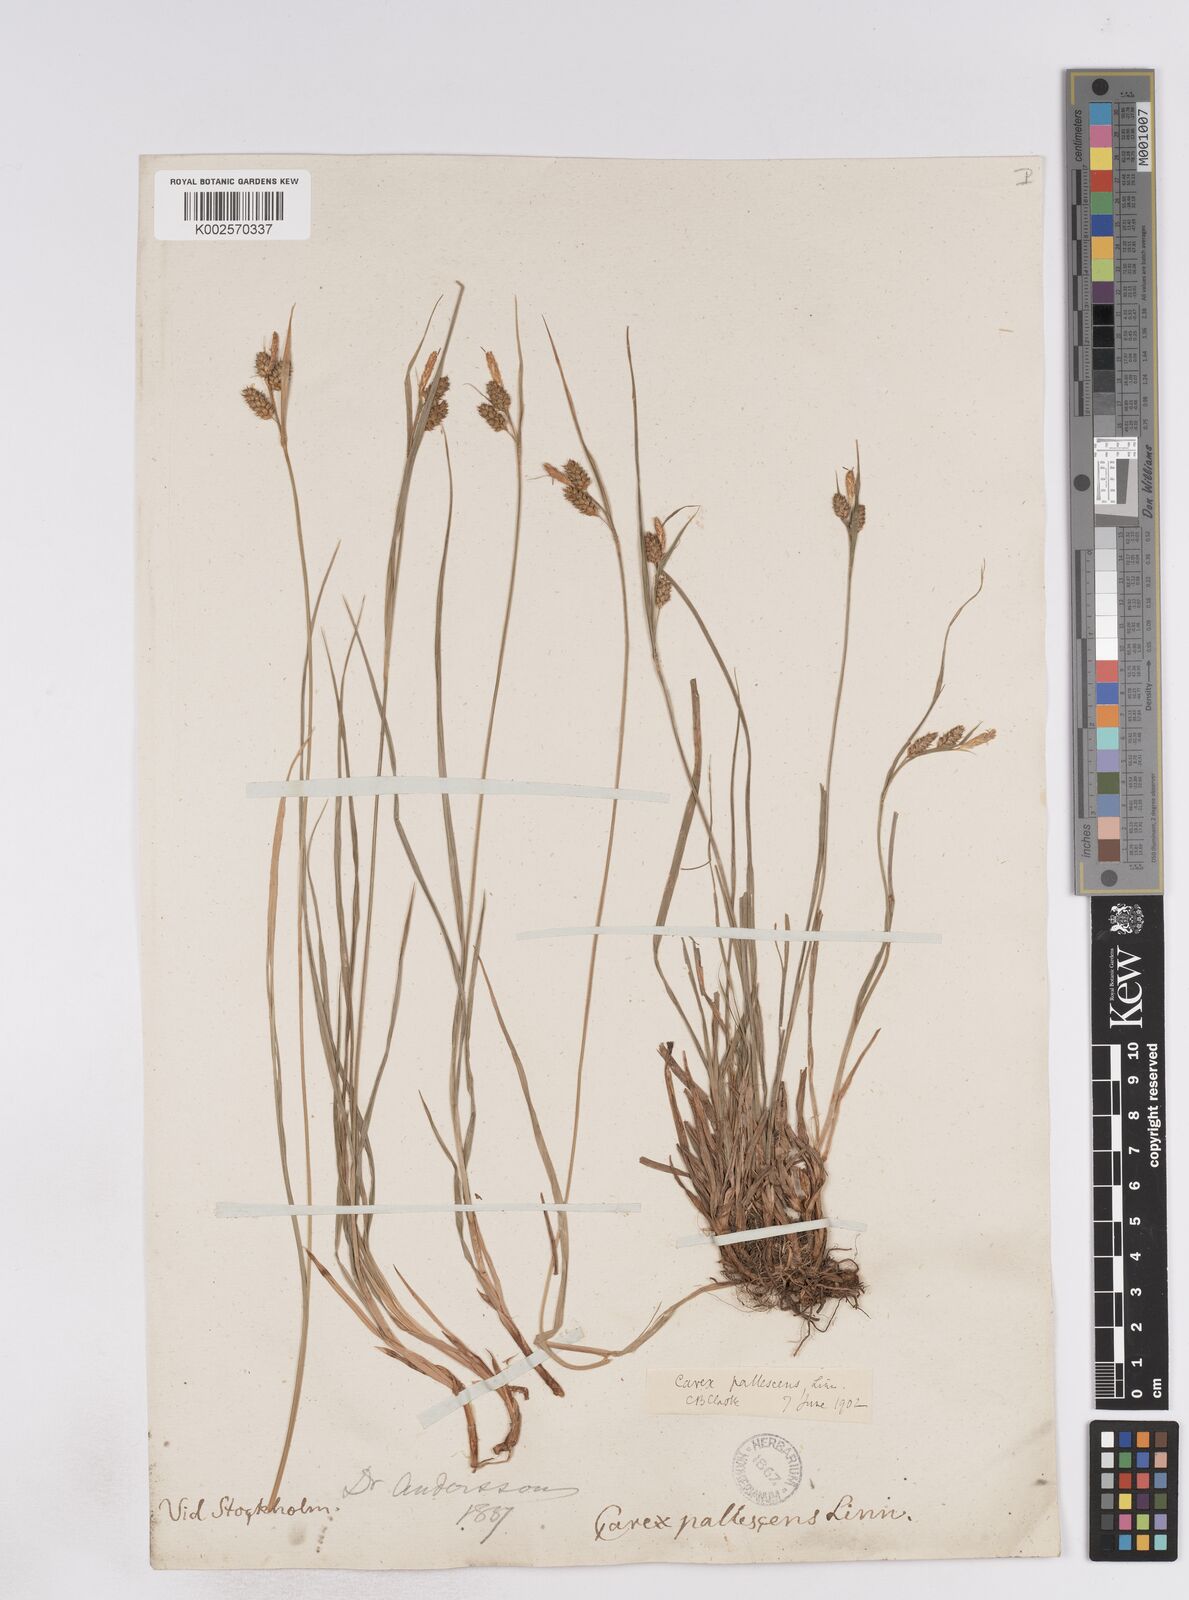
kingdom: Plantae
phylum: Tracheophyta
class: Liliopsida
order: Poales
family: Cyperaceae
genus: Carex
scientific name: Carex pallescens
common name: Pale sedge
